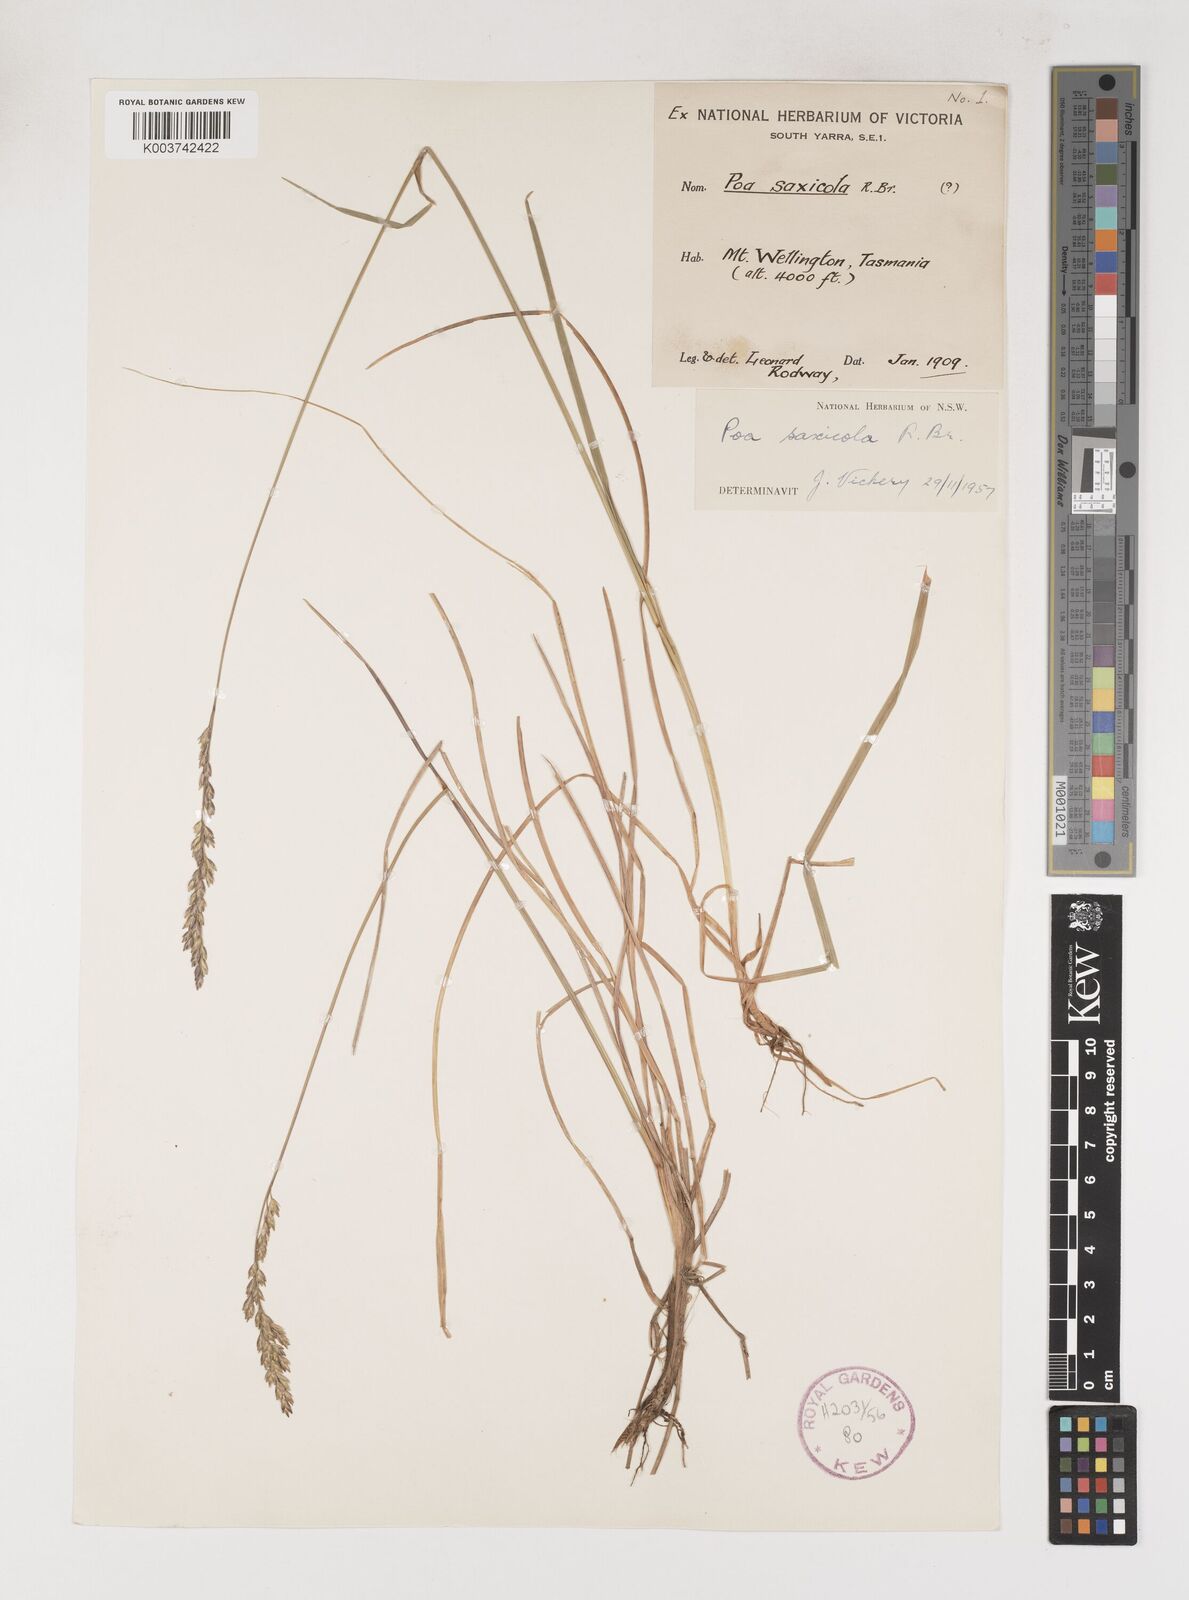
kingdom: Plantae
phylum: Tracheophyta
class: Liliopsida
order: Poales
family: Poaceae
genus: Saxipoa
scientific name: Saxipoa saxicola
